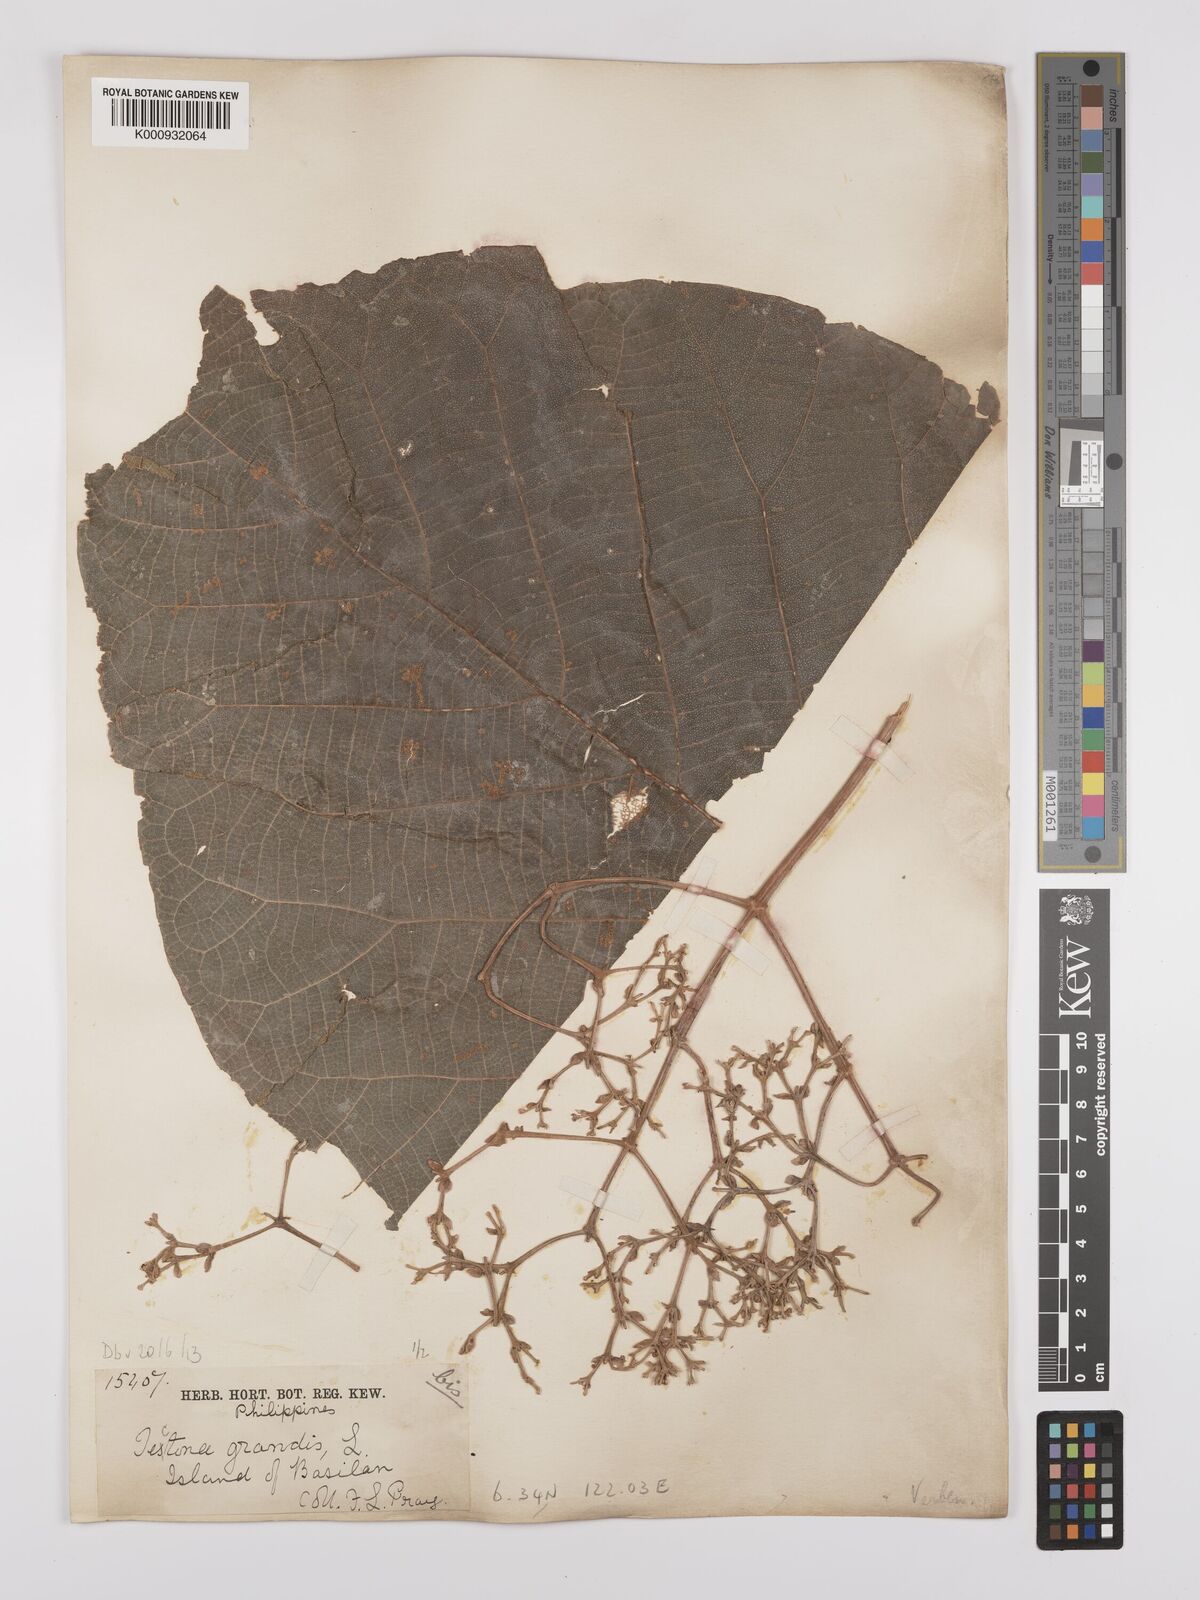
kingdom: Plantae
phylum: Tracheophyta
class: Magnoliopsida
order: Lamiales
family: Lamiaceae
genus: Tectona
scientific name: Tectona grandis
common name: Teak
